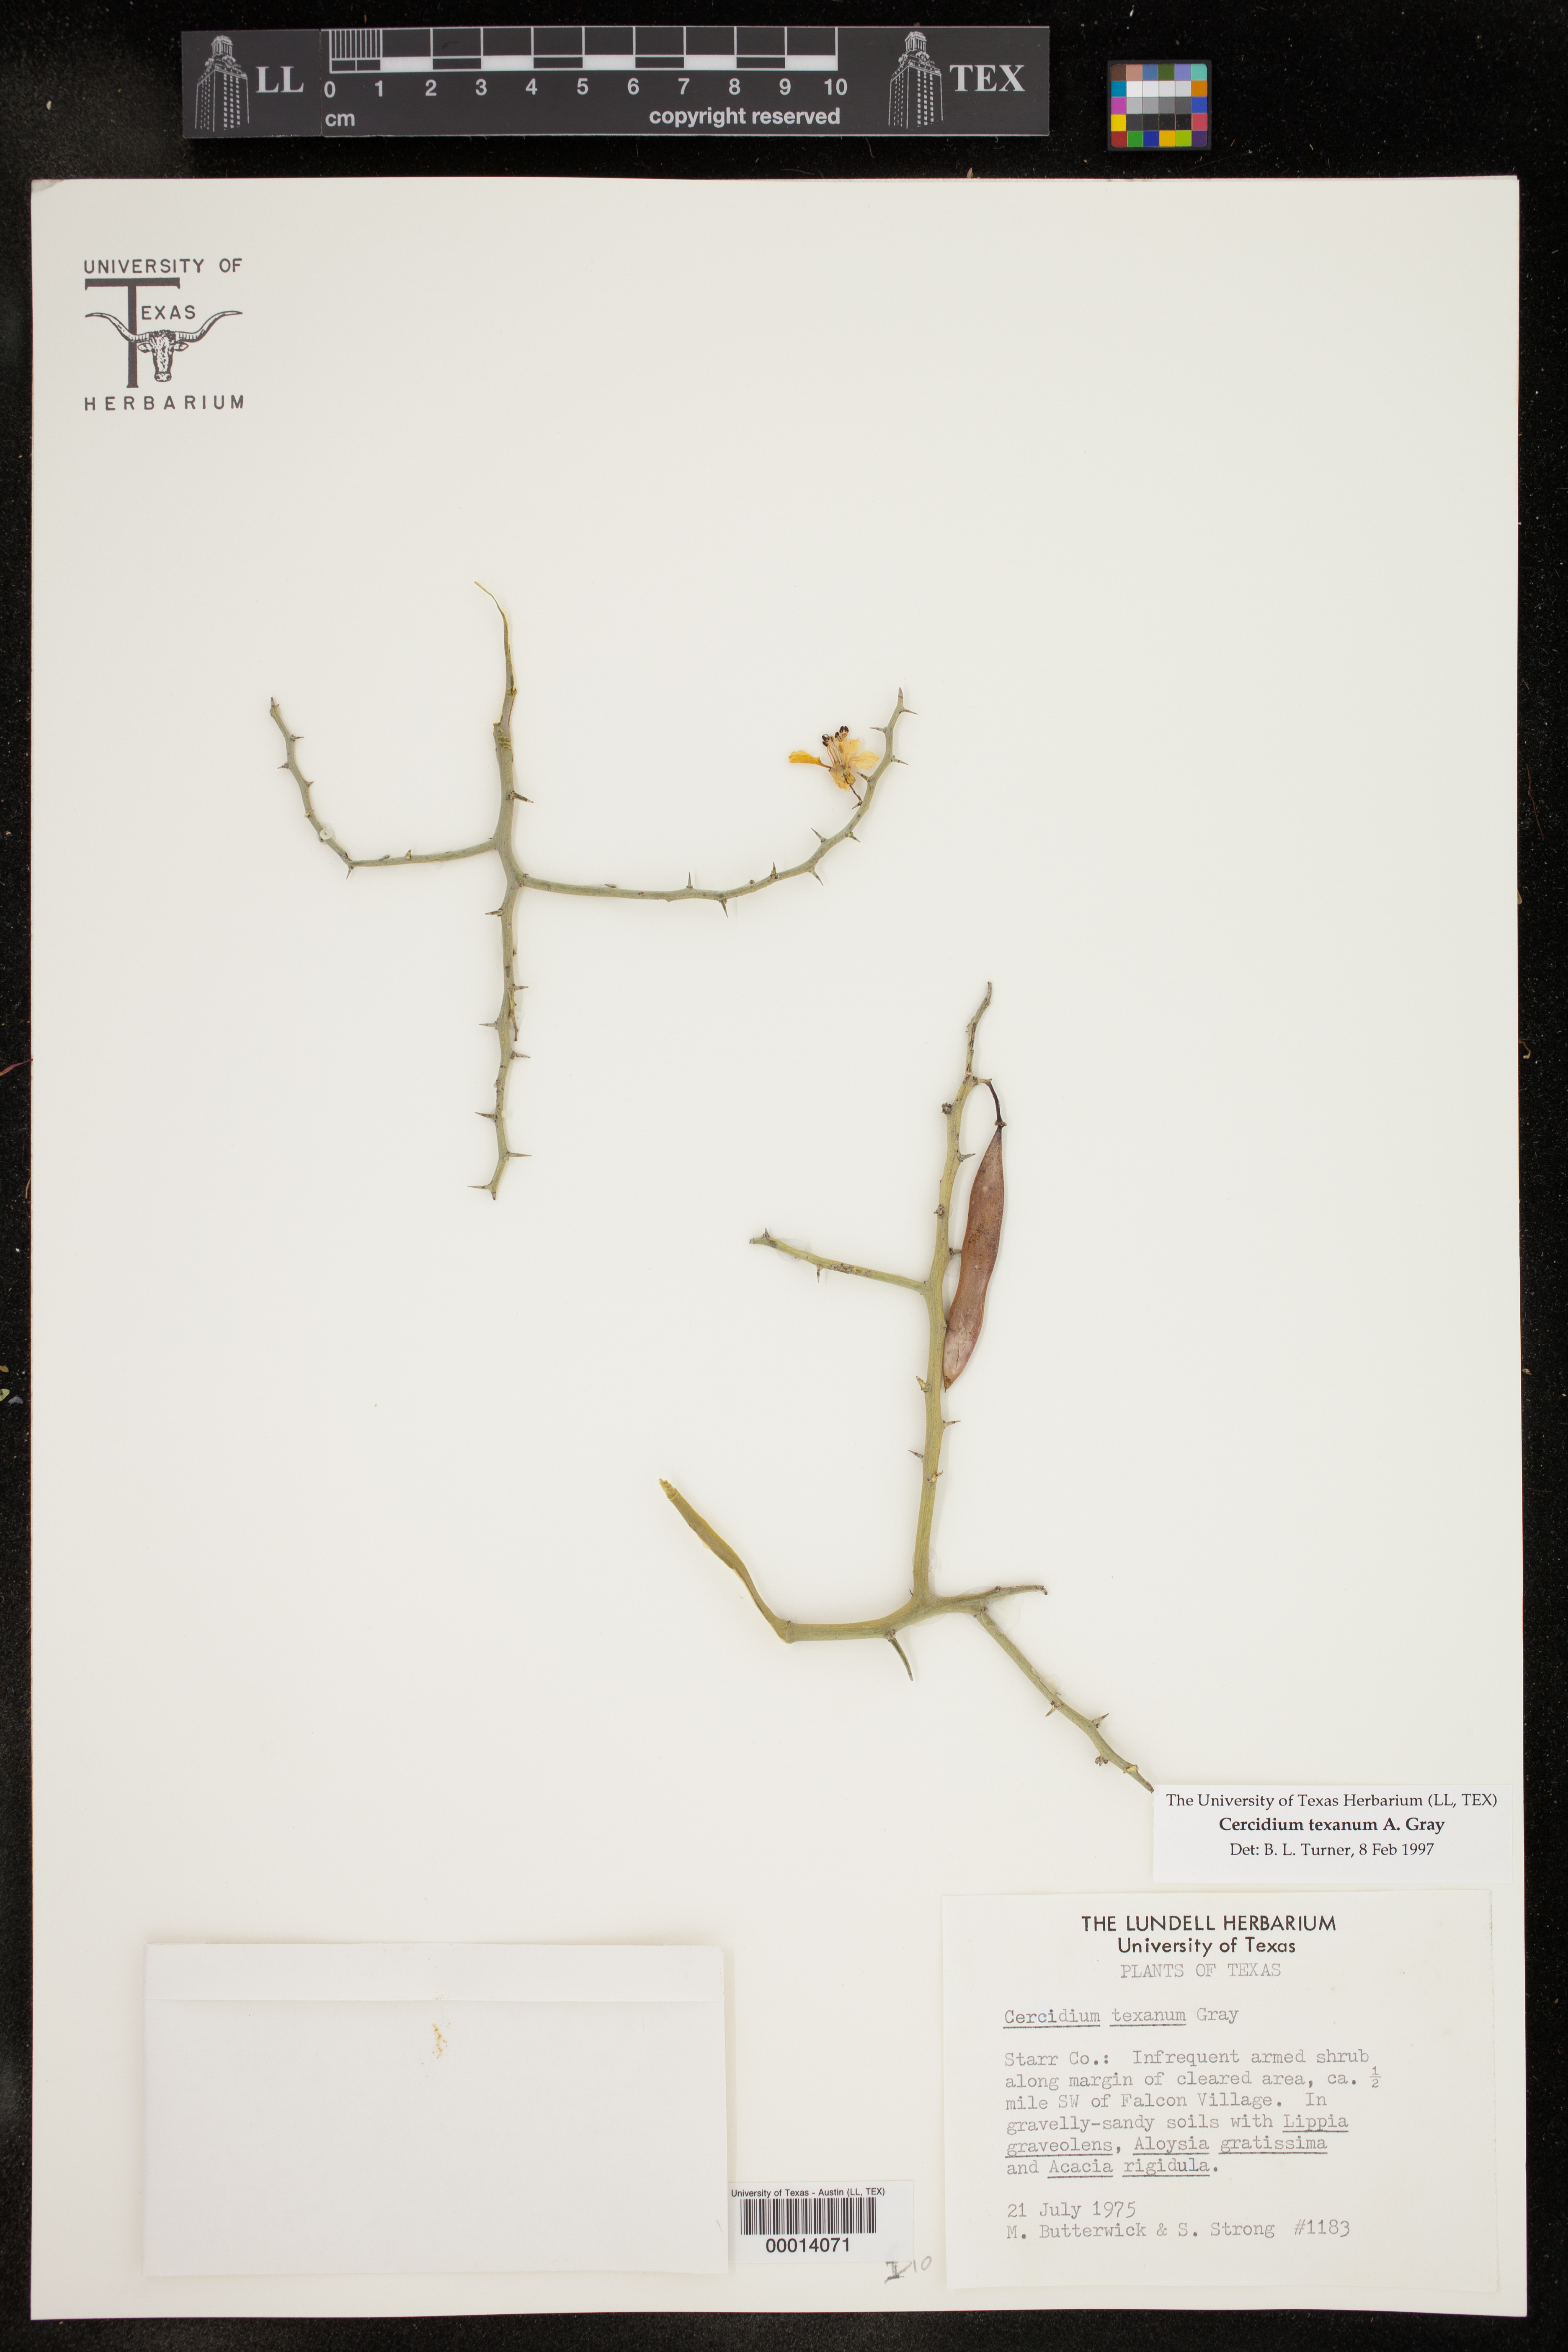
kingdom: Plantae
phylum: Tracheophyta
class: Magnoliopsida
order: Fabales
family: Fabaceae
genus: Parkinsonia
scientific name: Parkinsonia texana
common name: Texas paloverde
